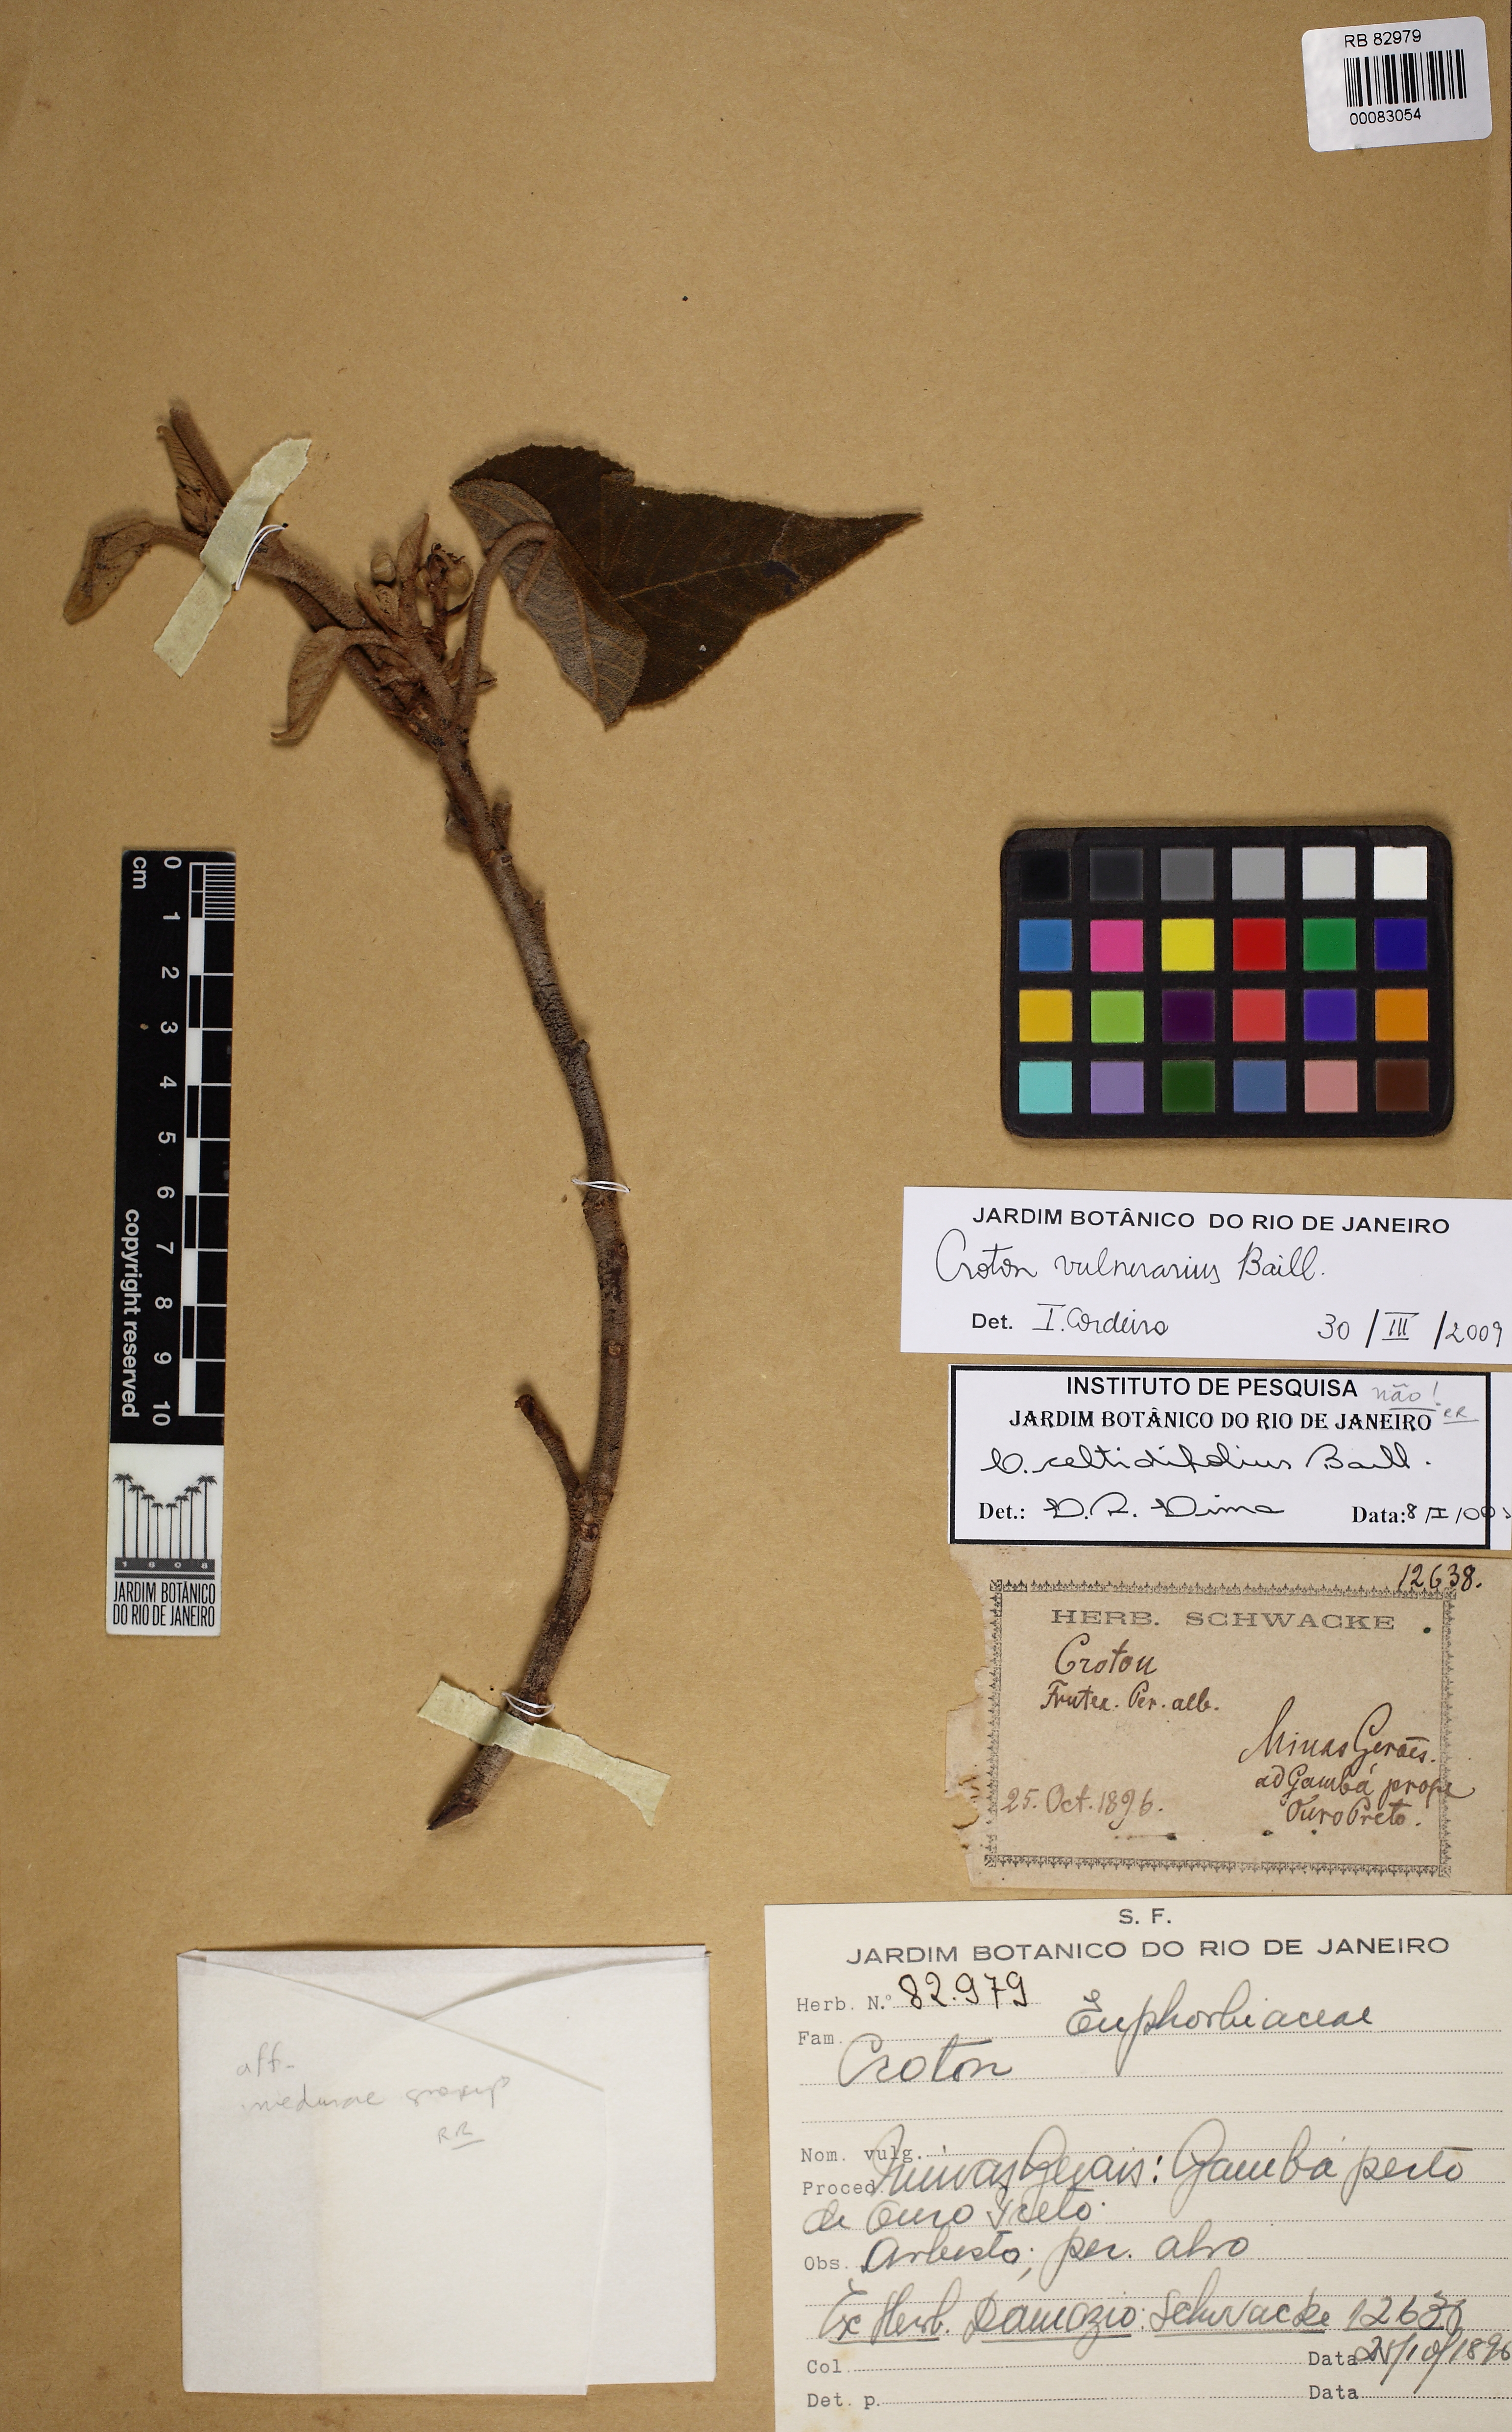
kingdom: Plantae
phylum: Tracheophyta
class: Magnoliopsida
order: Malpighiales
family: Euphorbiaceae
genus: Croton
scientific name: Croton vulnerarius
